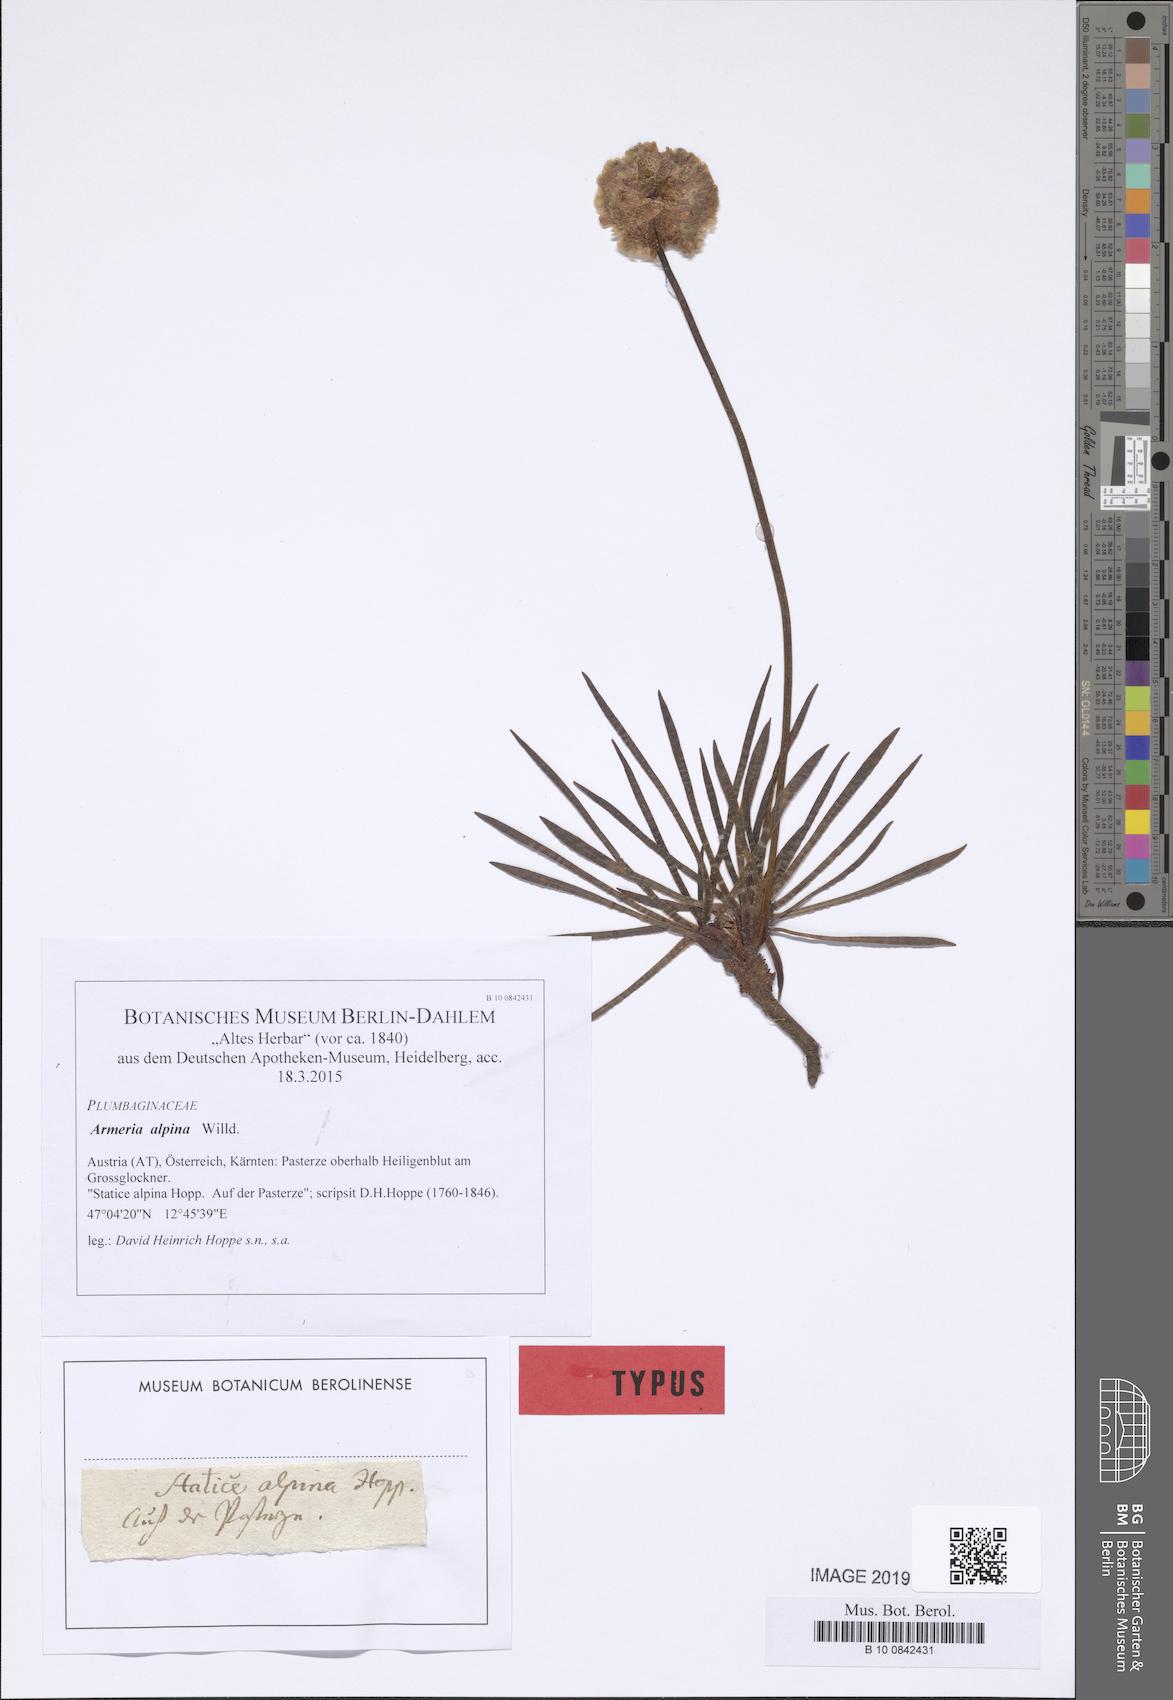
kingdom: Plantae
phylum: Tracheophyta
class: Magnoliopsida
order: Caryophyllales
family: Plumbaginaceae
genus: Armeria
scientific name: Armeria alpina
